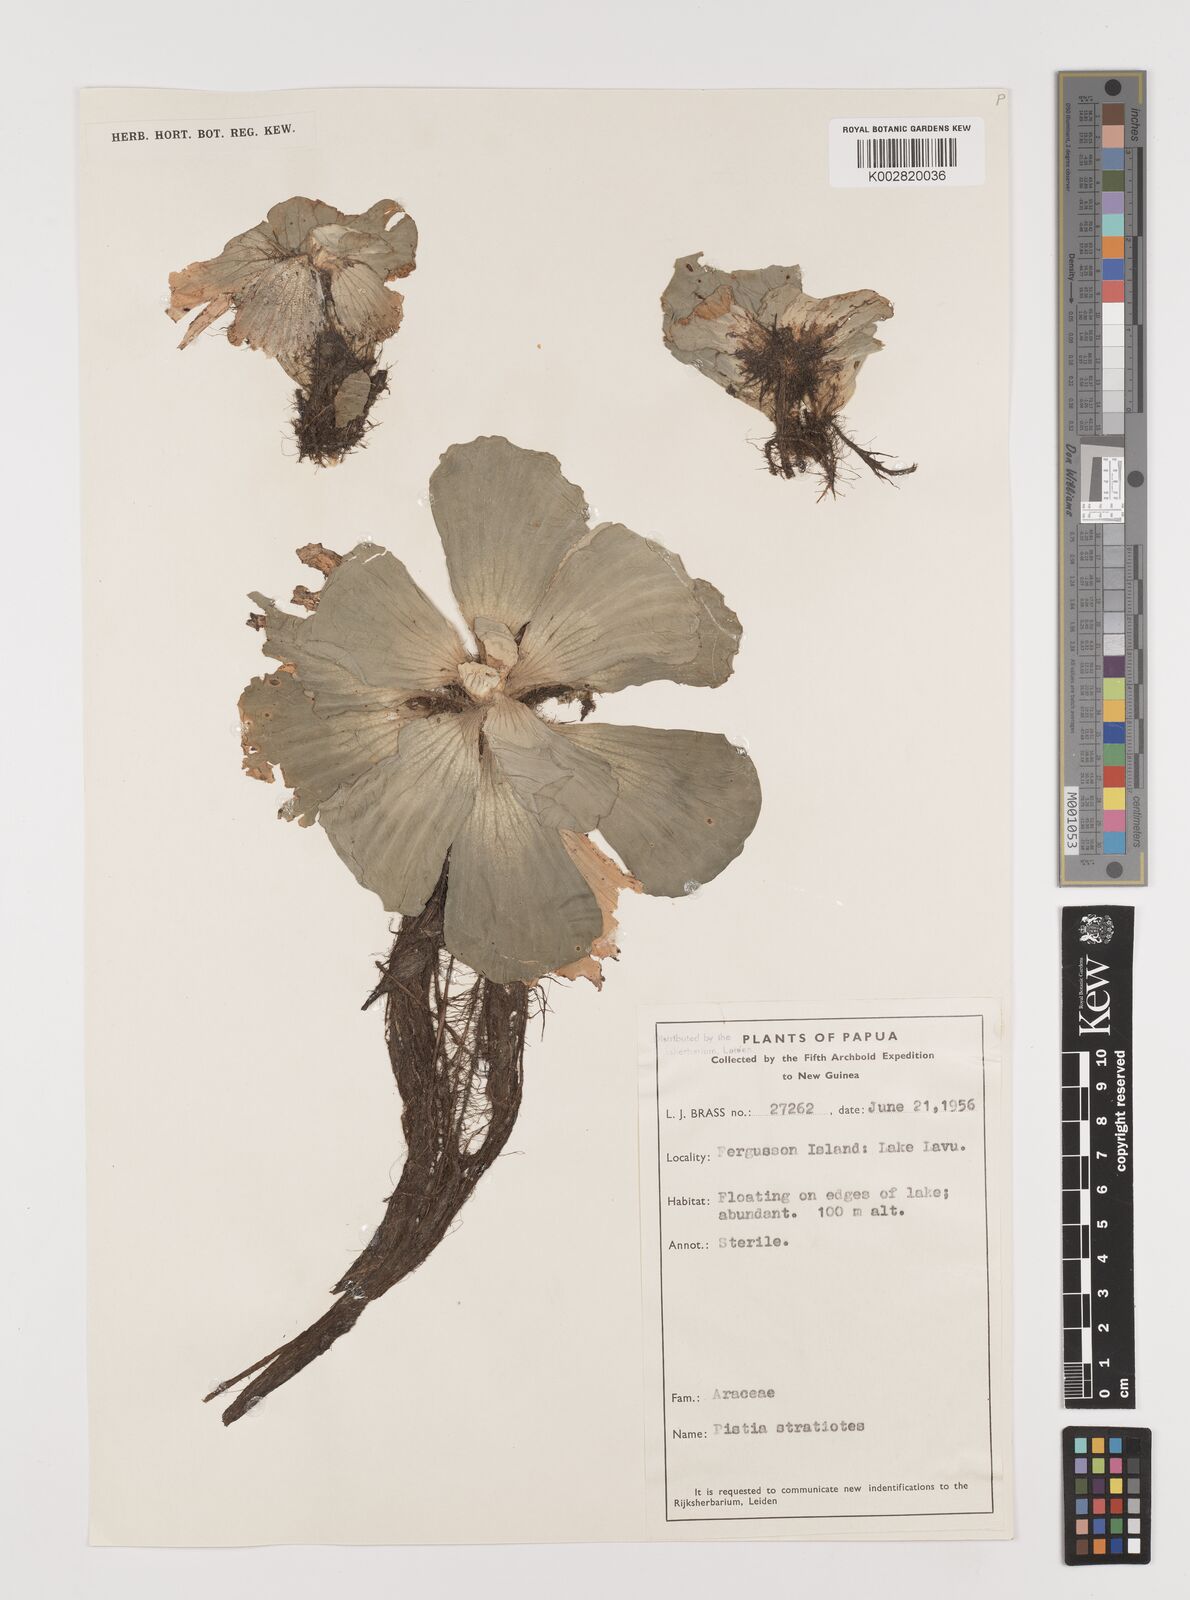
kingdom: Plantae
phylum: Tracheophyta
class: Liliopsida
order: Alismatales
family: Araceae
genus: Pistia
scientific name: Pistia stratiotes
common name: Water lettuce
